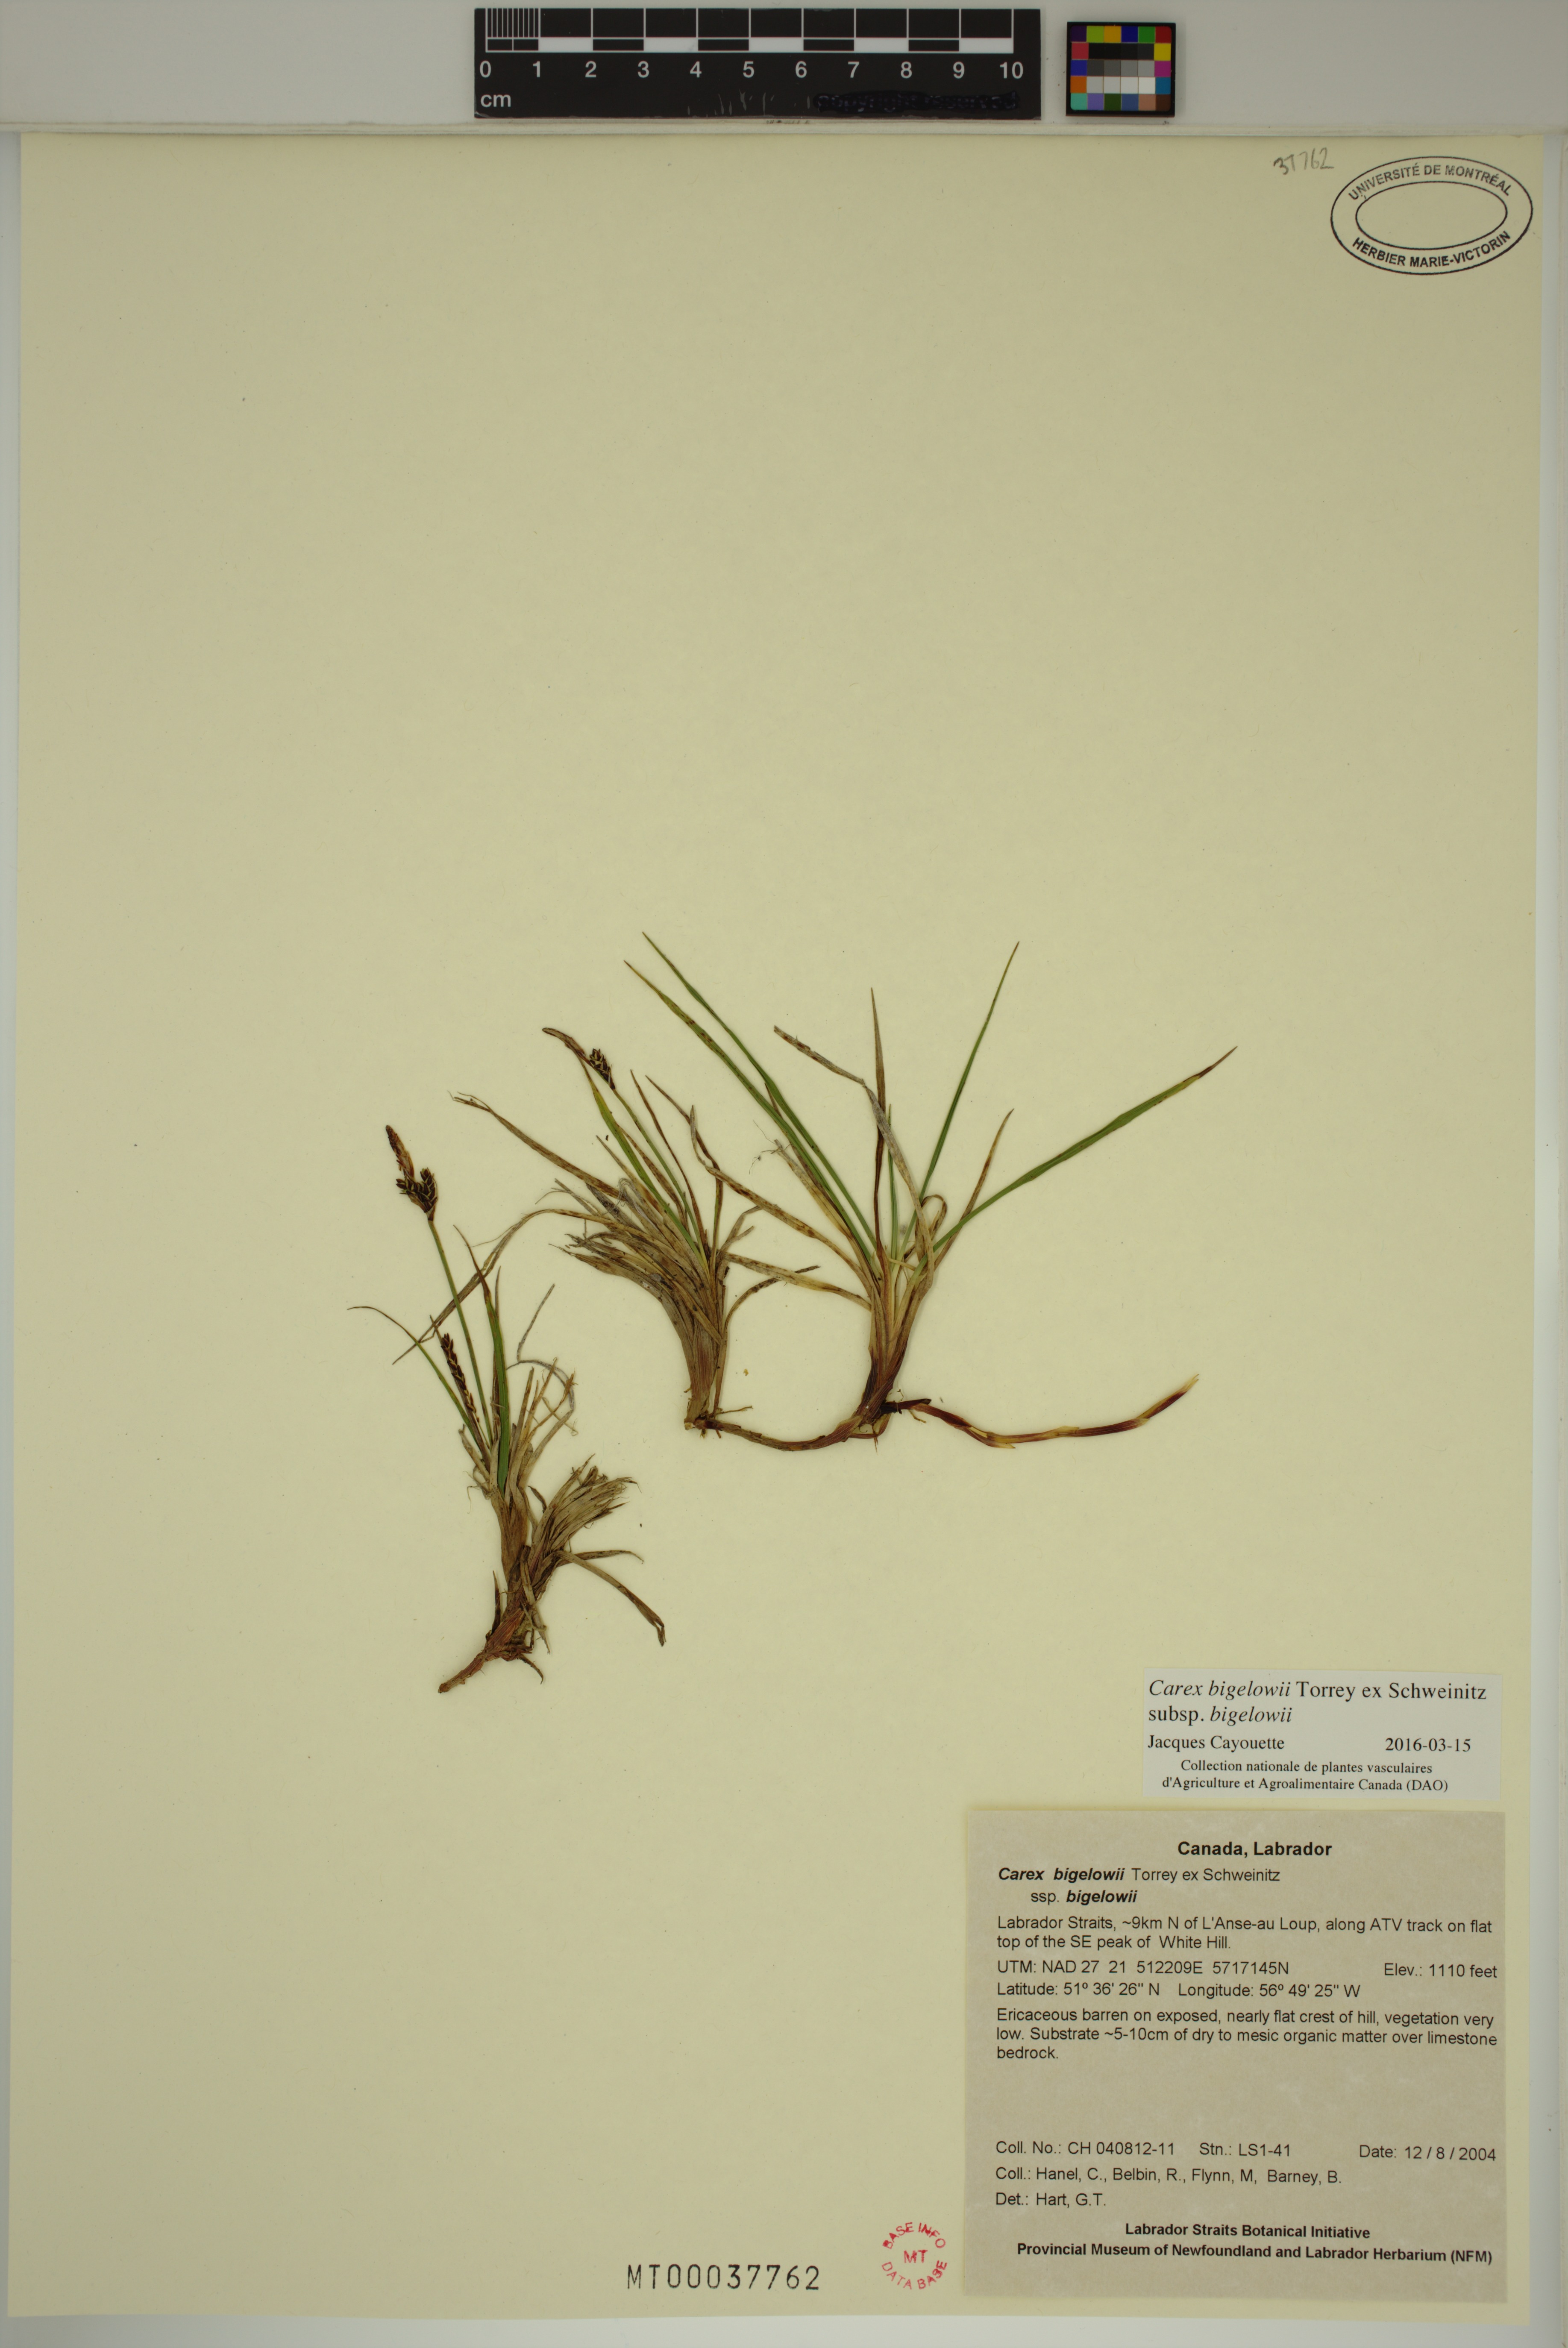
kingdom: Plantae
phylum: Tracheophyta
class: Liliopsida
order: Poales
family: Cyperaceae
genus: Carex
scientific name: Carex bigelowii
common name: Stiff sedge
